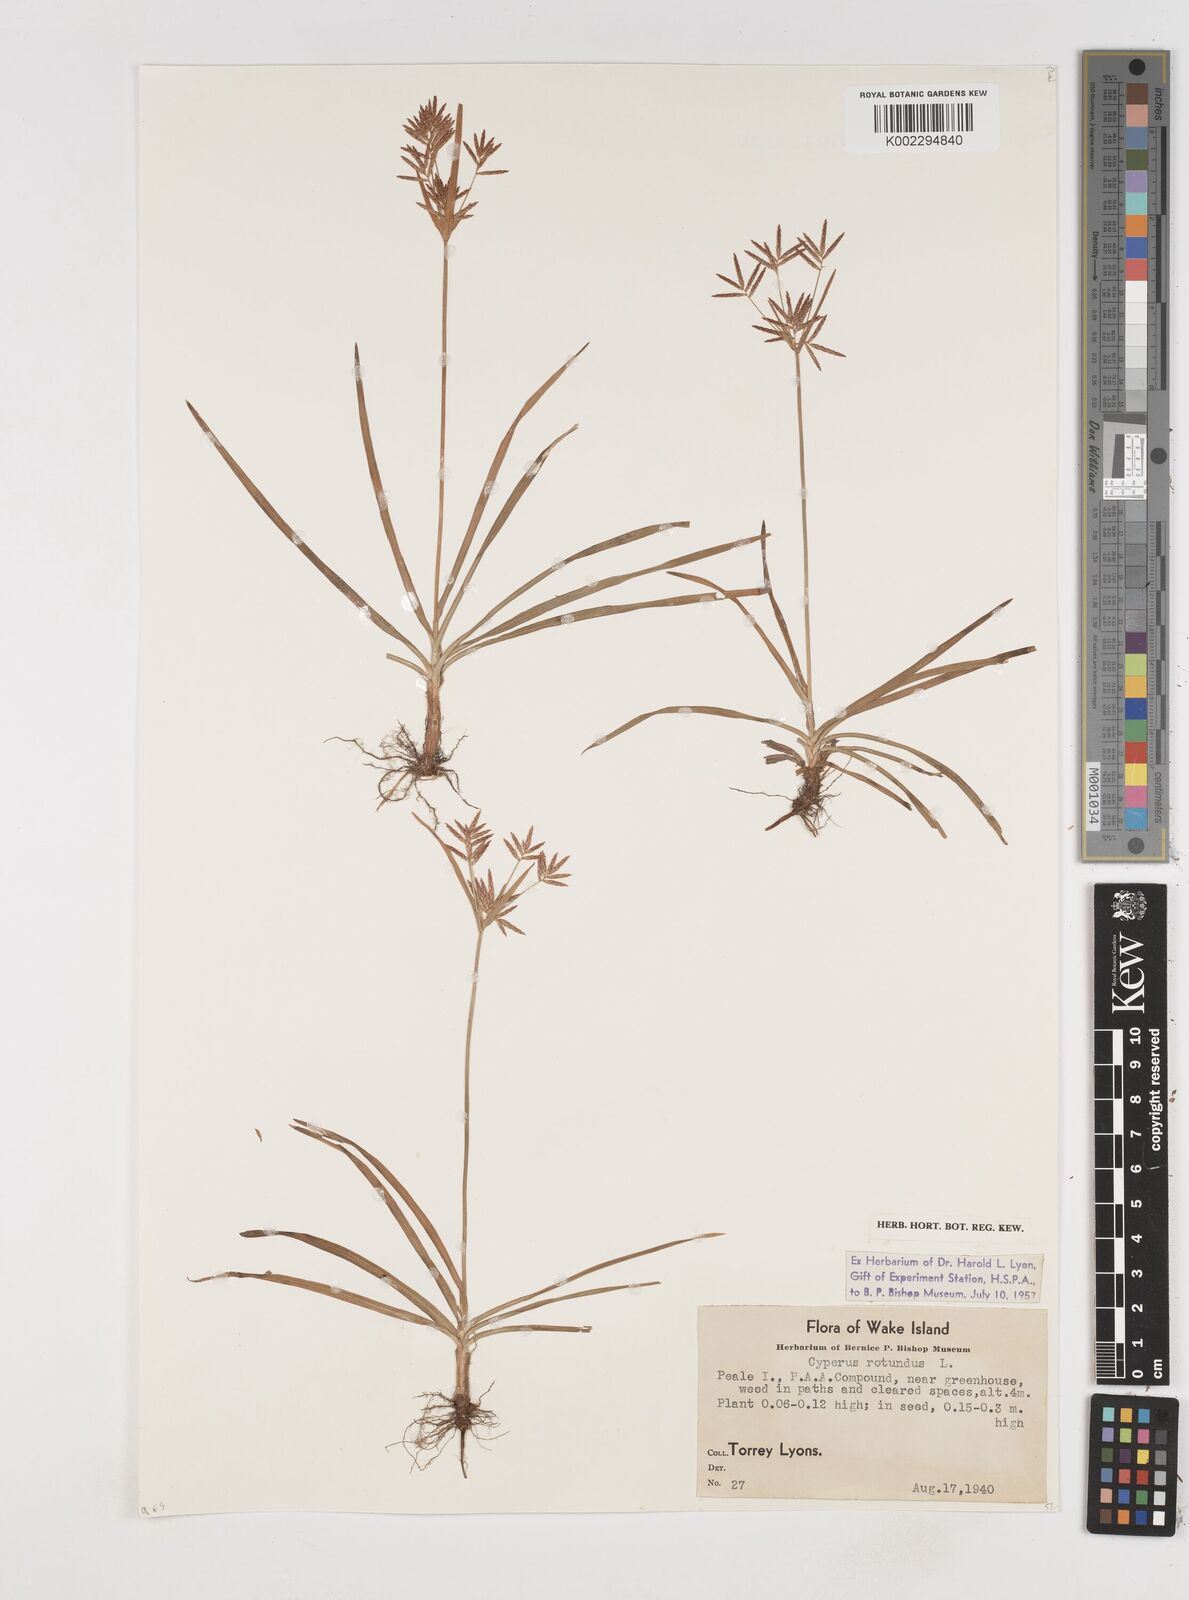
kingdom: Plantae
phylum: Tracheophyta
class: Liliopsida
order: Poales
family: Cyperaceae
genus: Cyperus
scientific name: Cyperus rotundus
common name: Nutgrass
